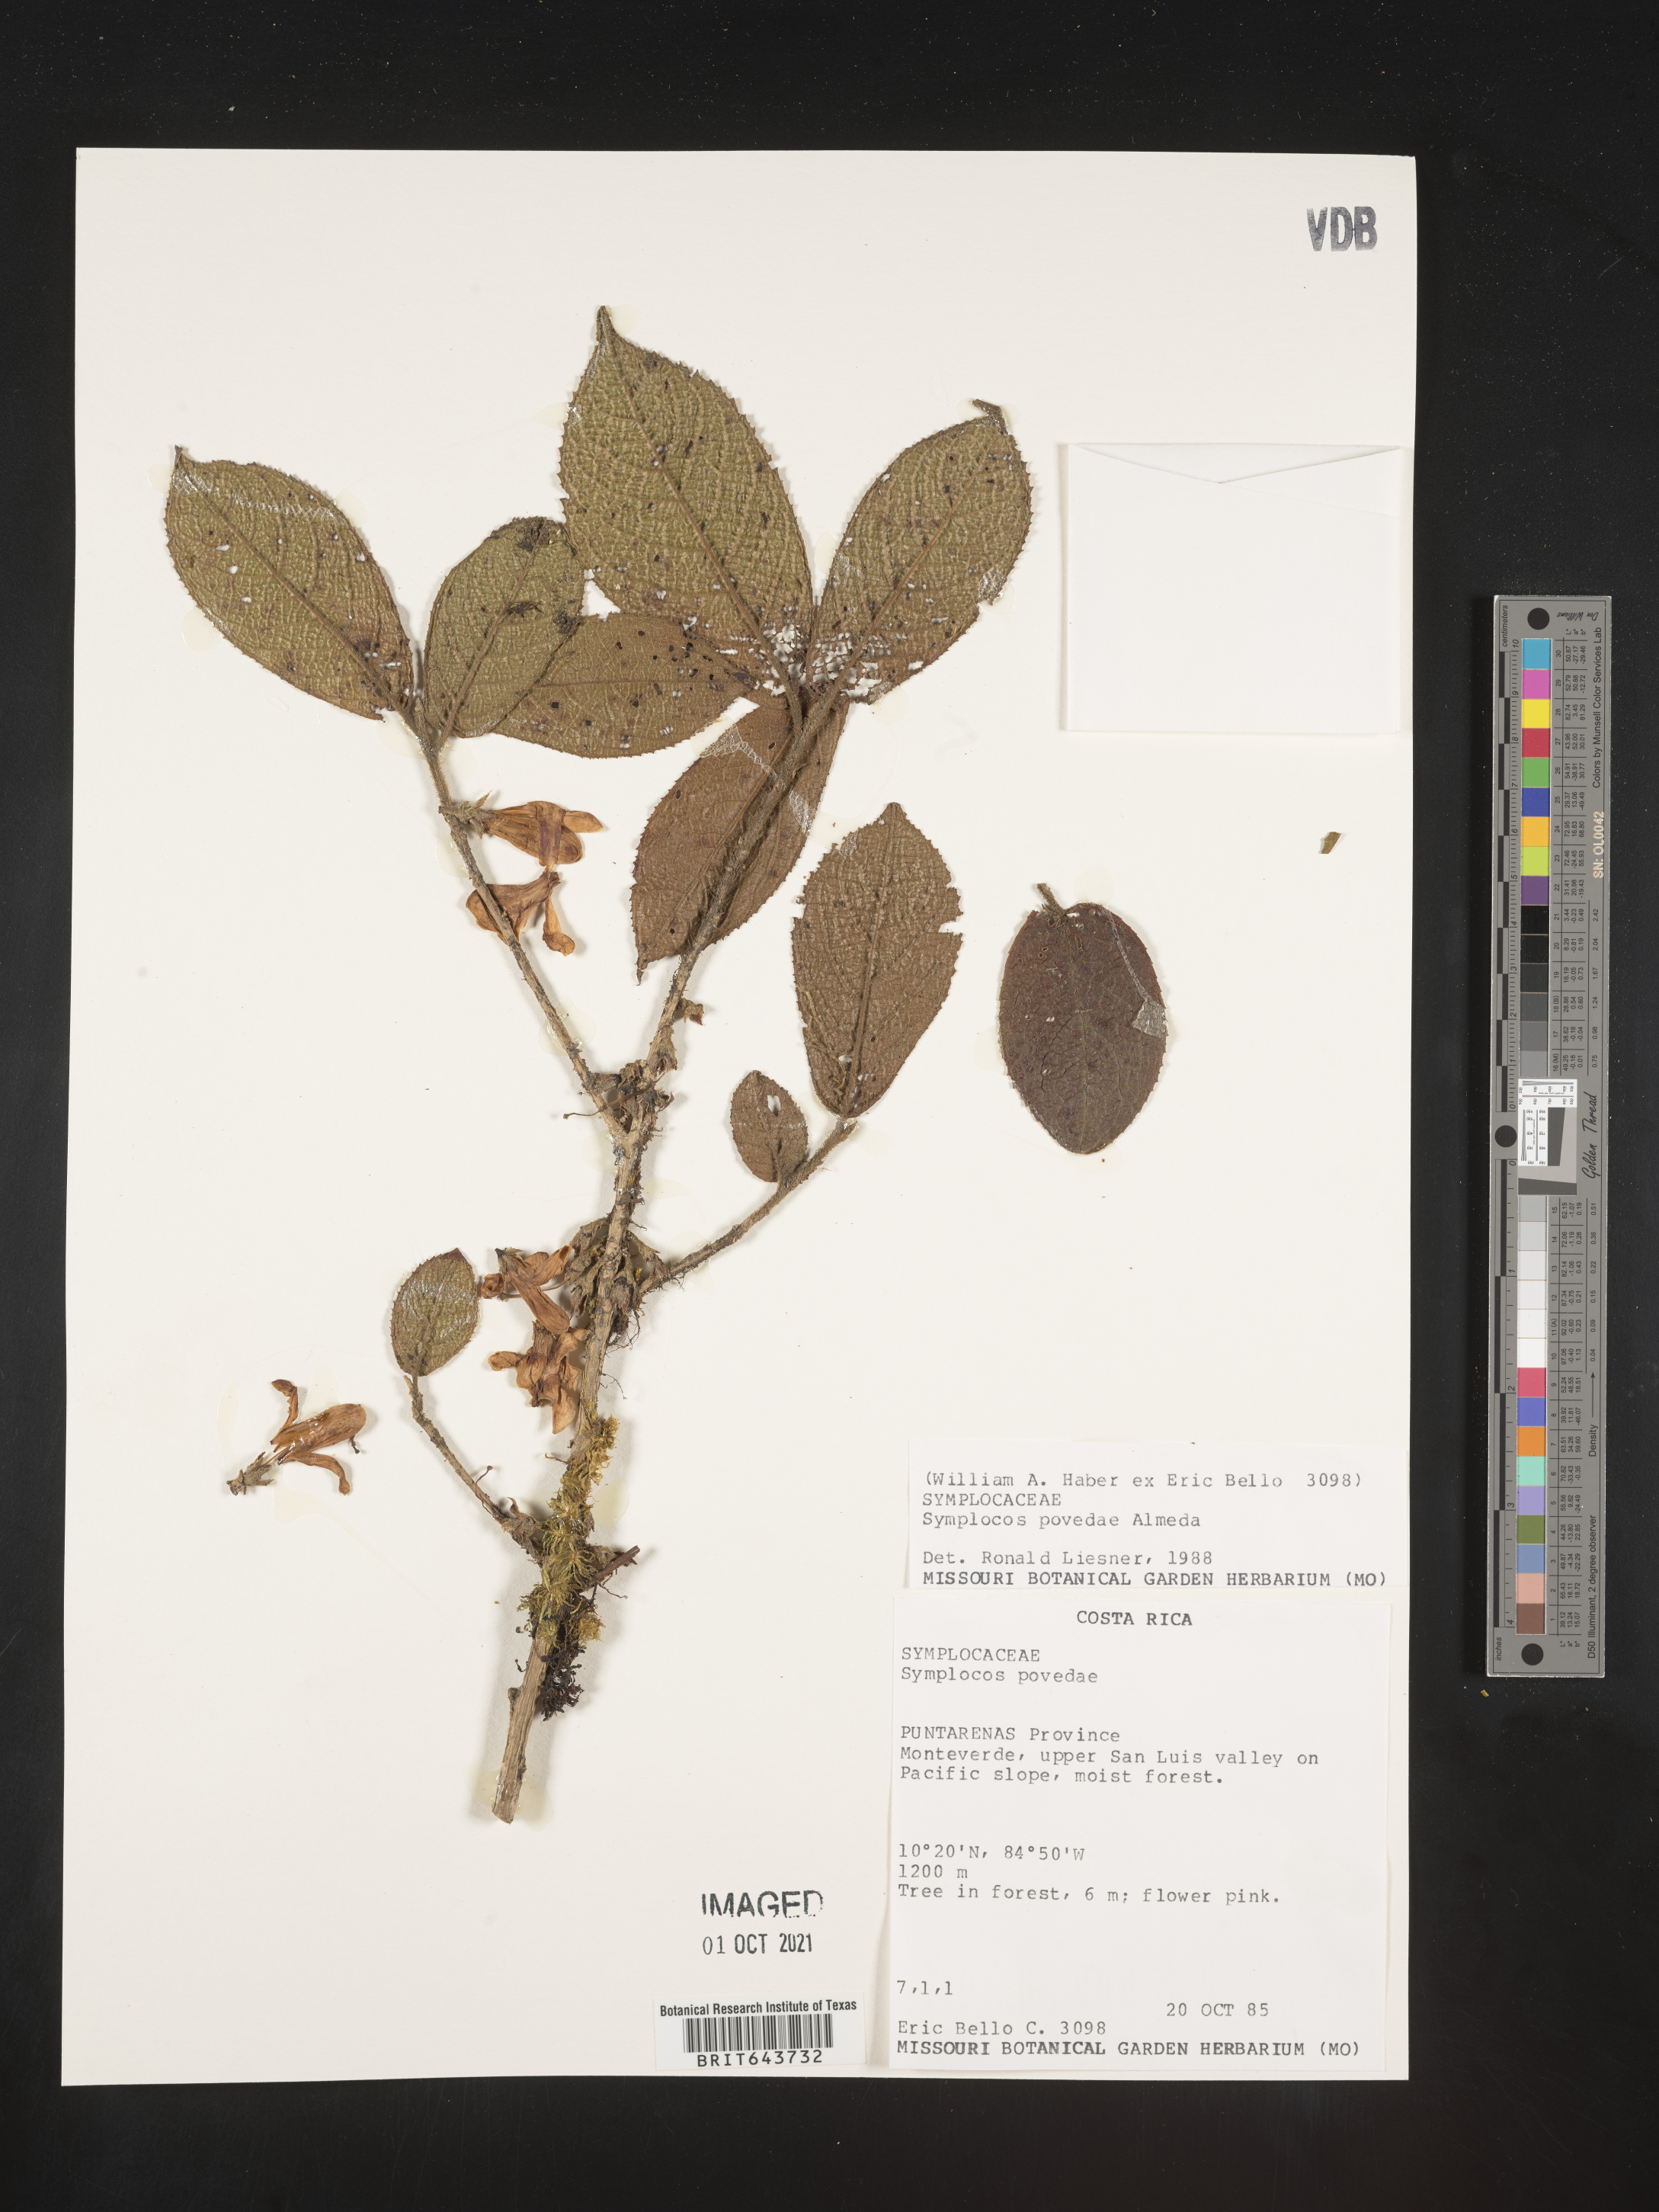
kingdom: Plantae
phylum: Tracheophyta
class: Magnoliopsida
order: Ericales
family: Symplocaceae
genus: Symplocos
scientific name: Symplocos
